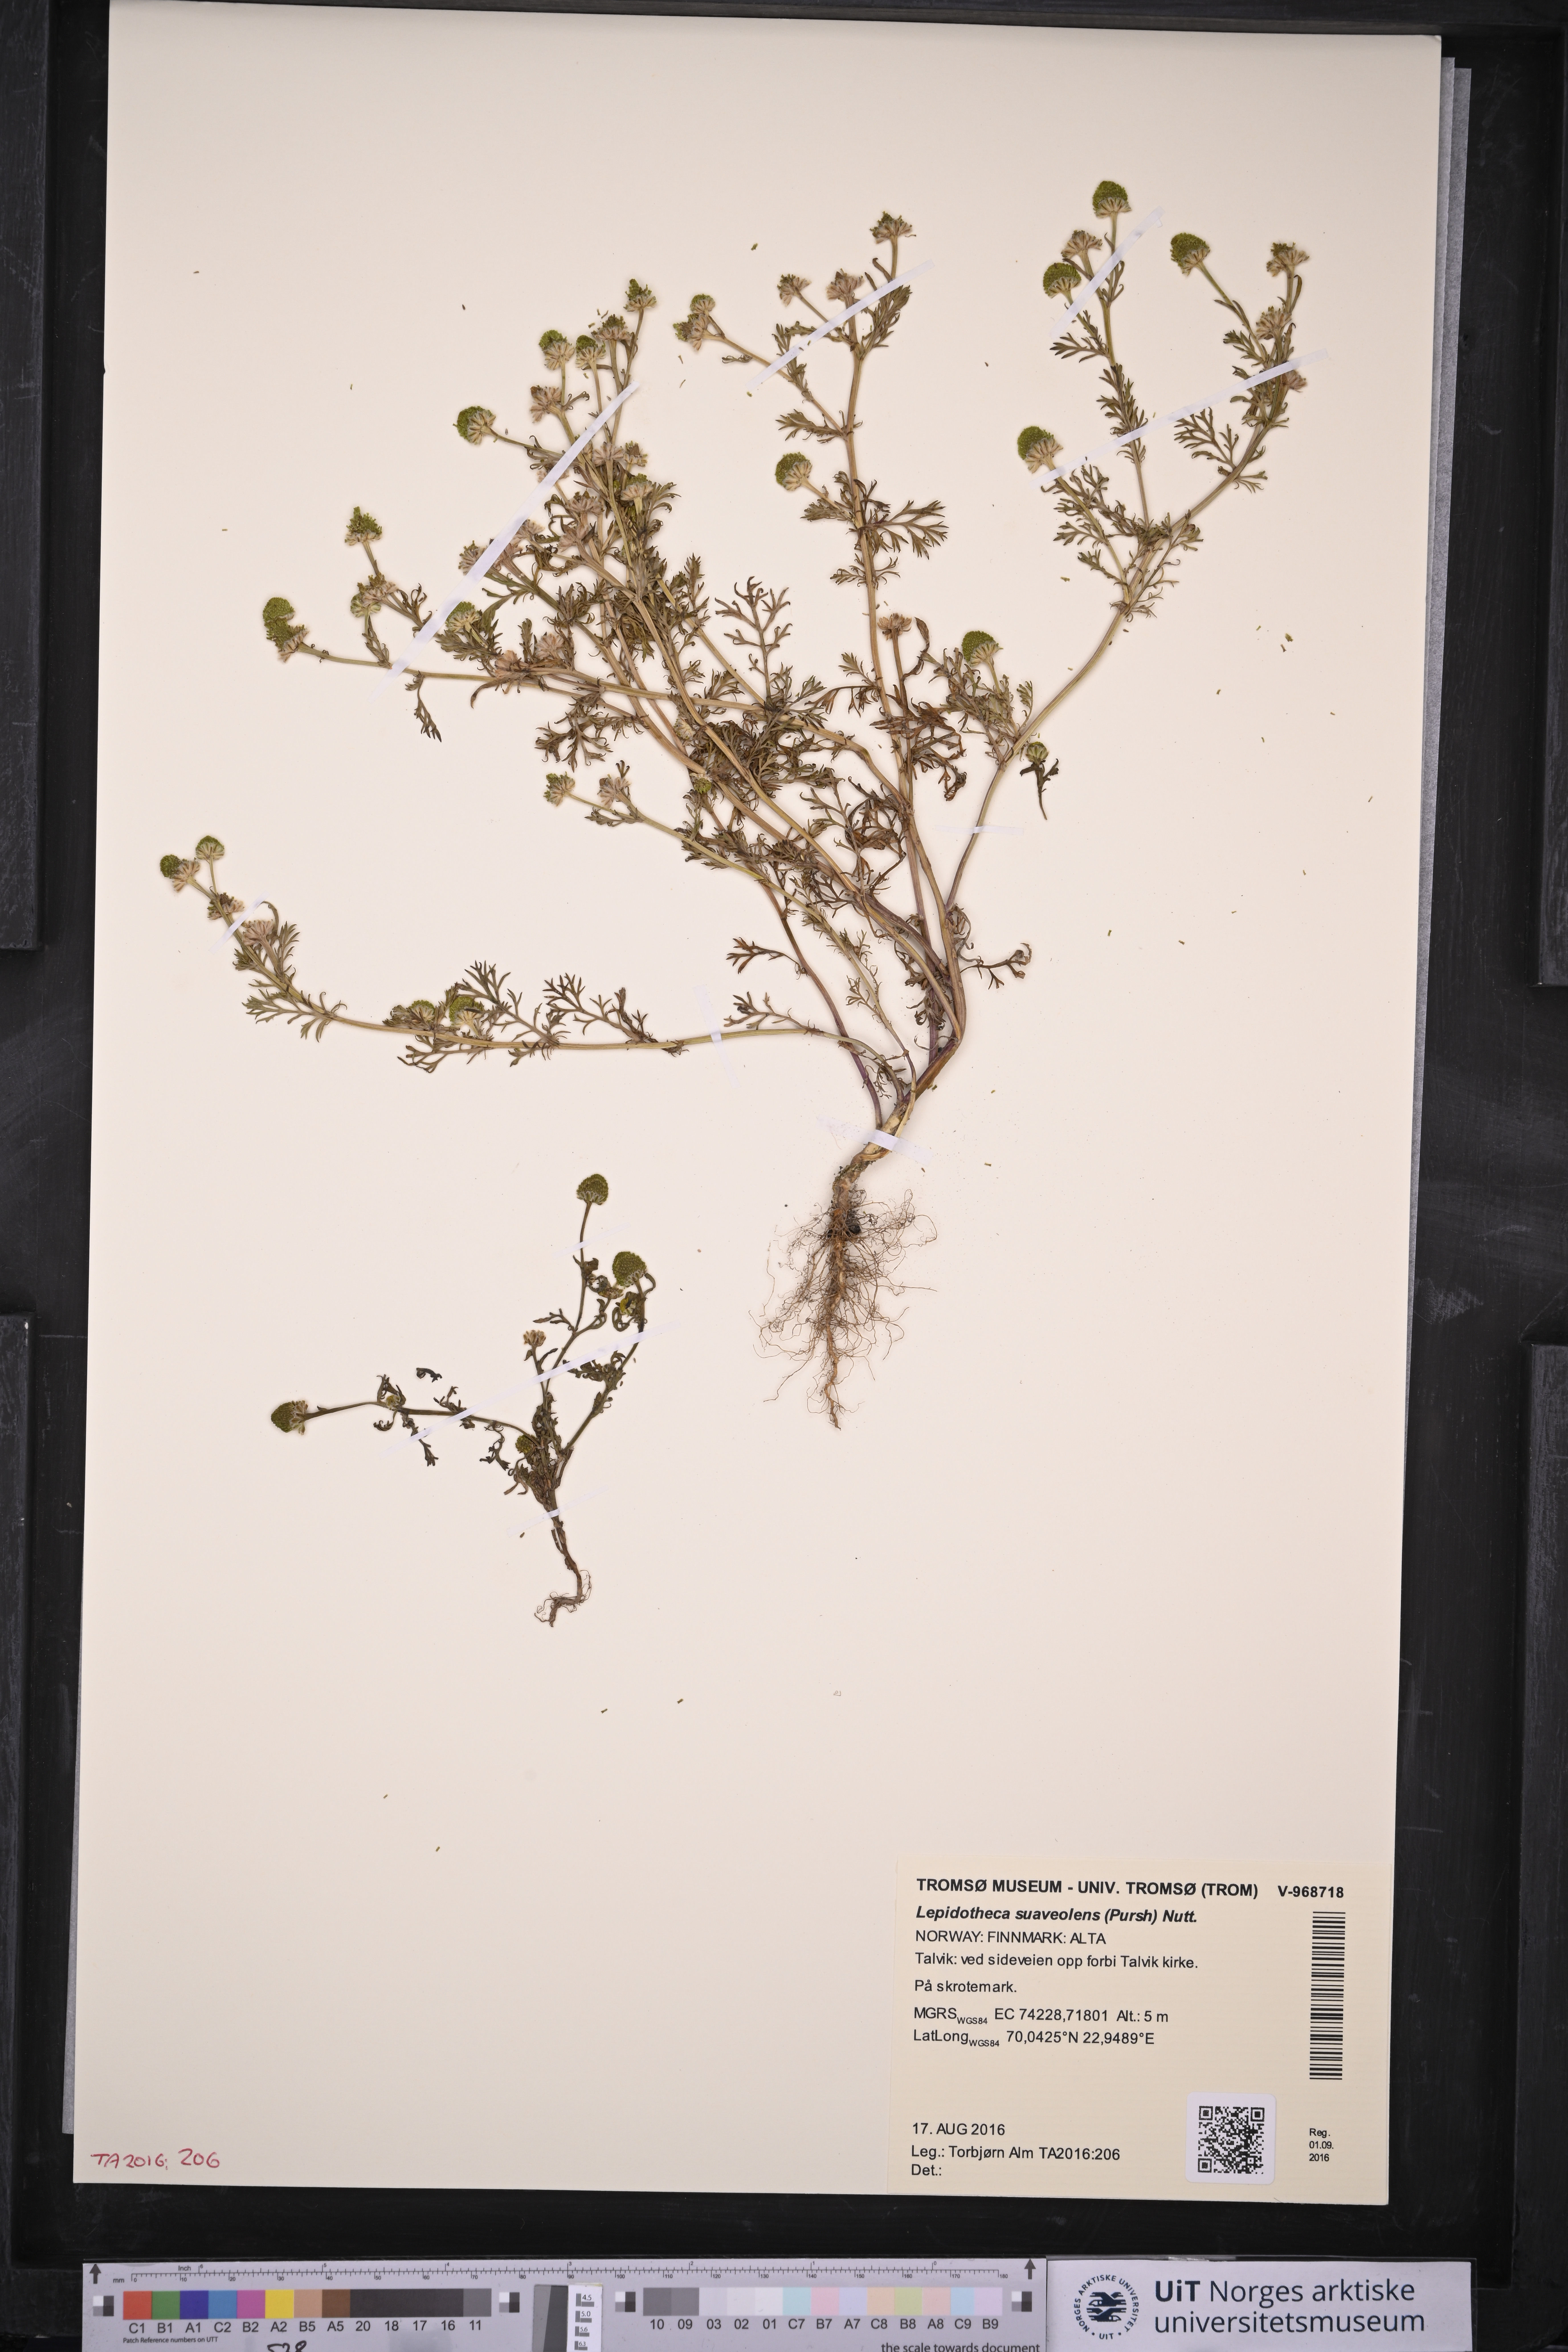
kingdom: Plantae
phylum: Tracheophyta
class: Magnoliopsida
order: Asterales
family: Asteraceae
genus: Matricaria
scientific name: Matricaria discoidea
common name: Disc mayweed
